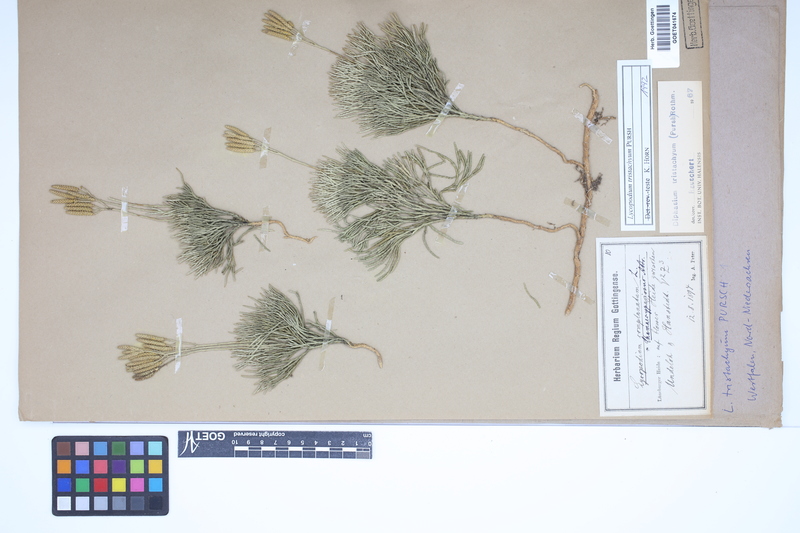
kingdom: Plantae
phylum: Tracheophyta
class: Lycopodiopsida
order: Lycopodiales
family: Lycopodiaceae
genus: Diphasiastrum
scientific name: Diphasiastrum tristachyum
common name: Blue ground-cedar
